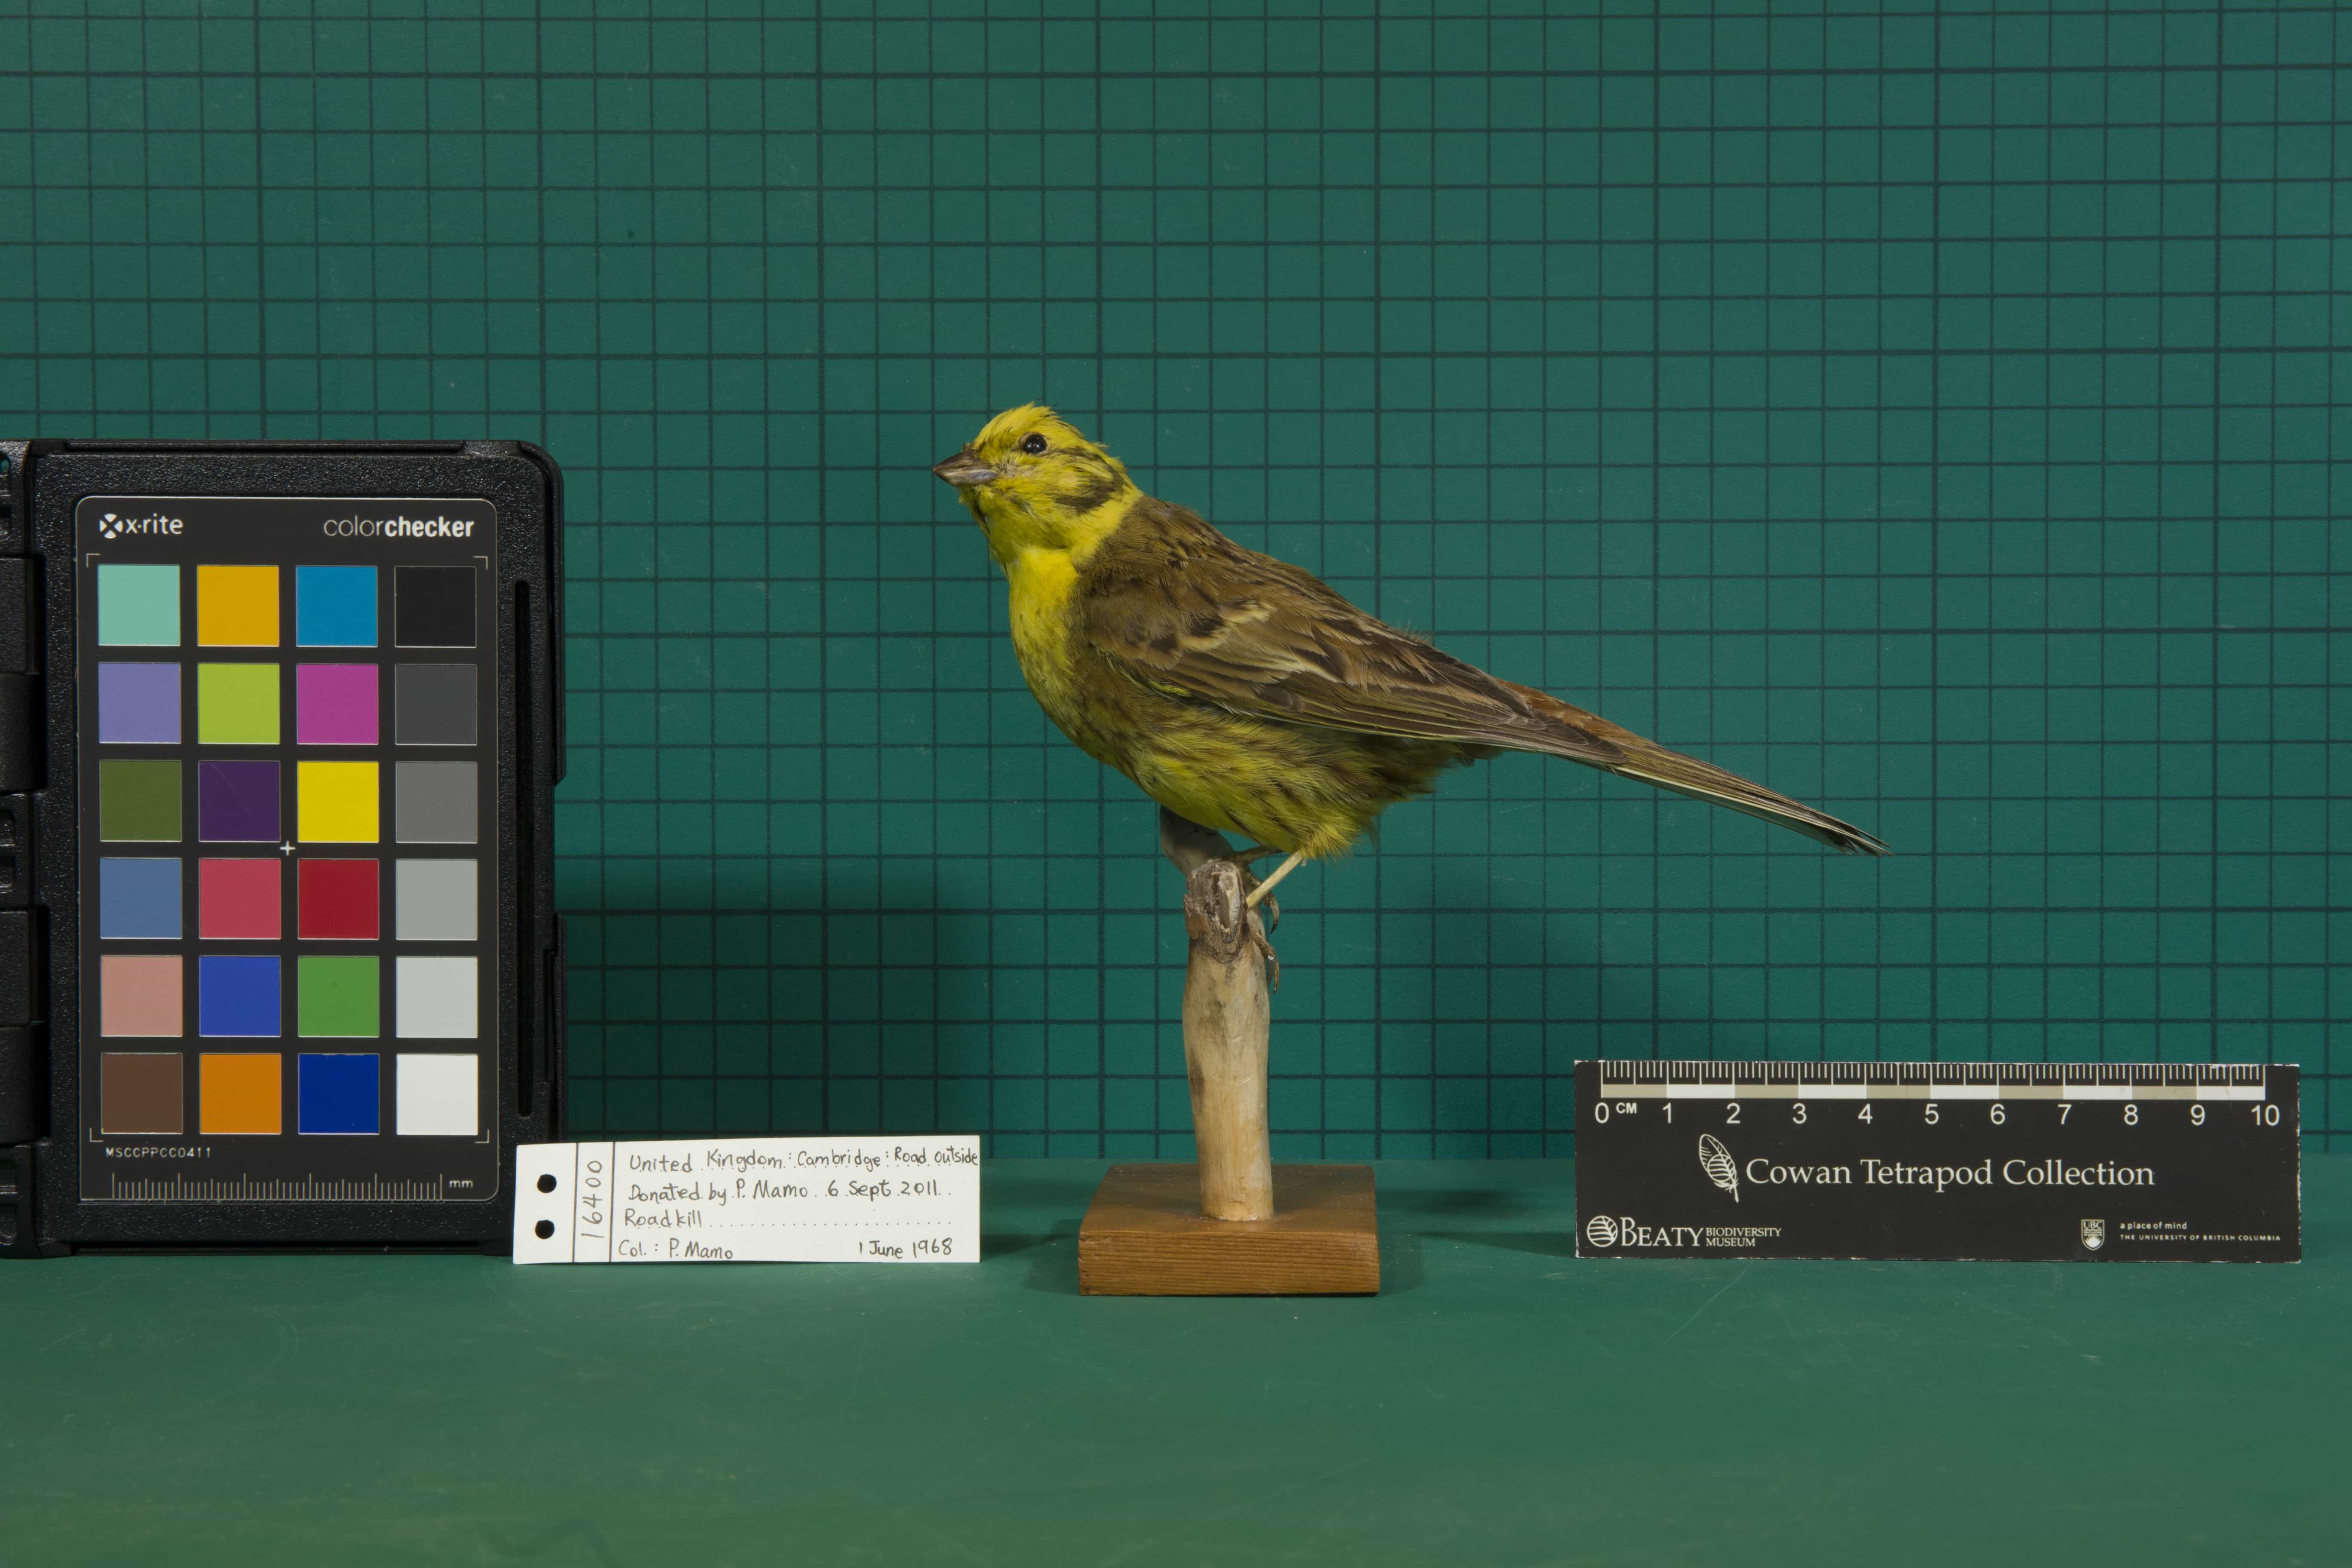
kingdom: Animalia
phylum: Chordata
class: Aves
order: Passeriformes
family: Emberizidae
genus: Emberiza
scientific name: Emberiza citrinella
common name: Yellowhammer
